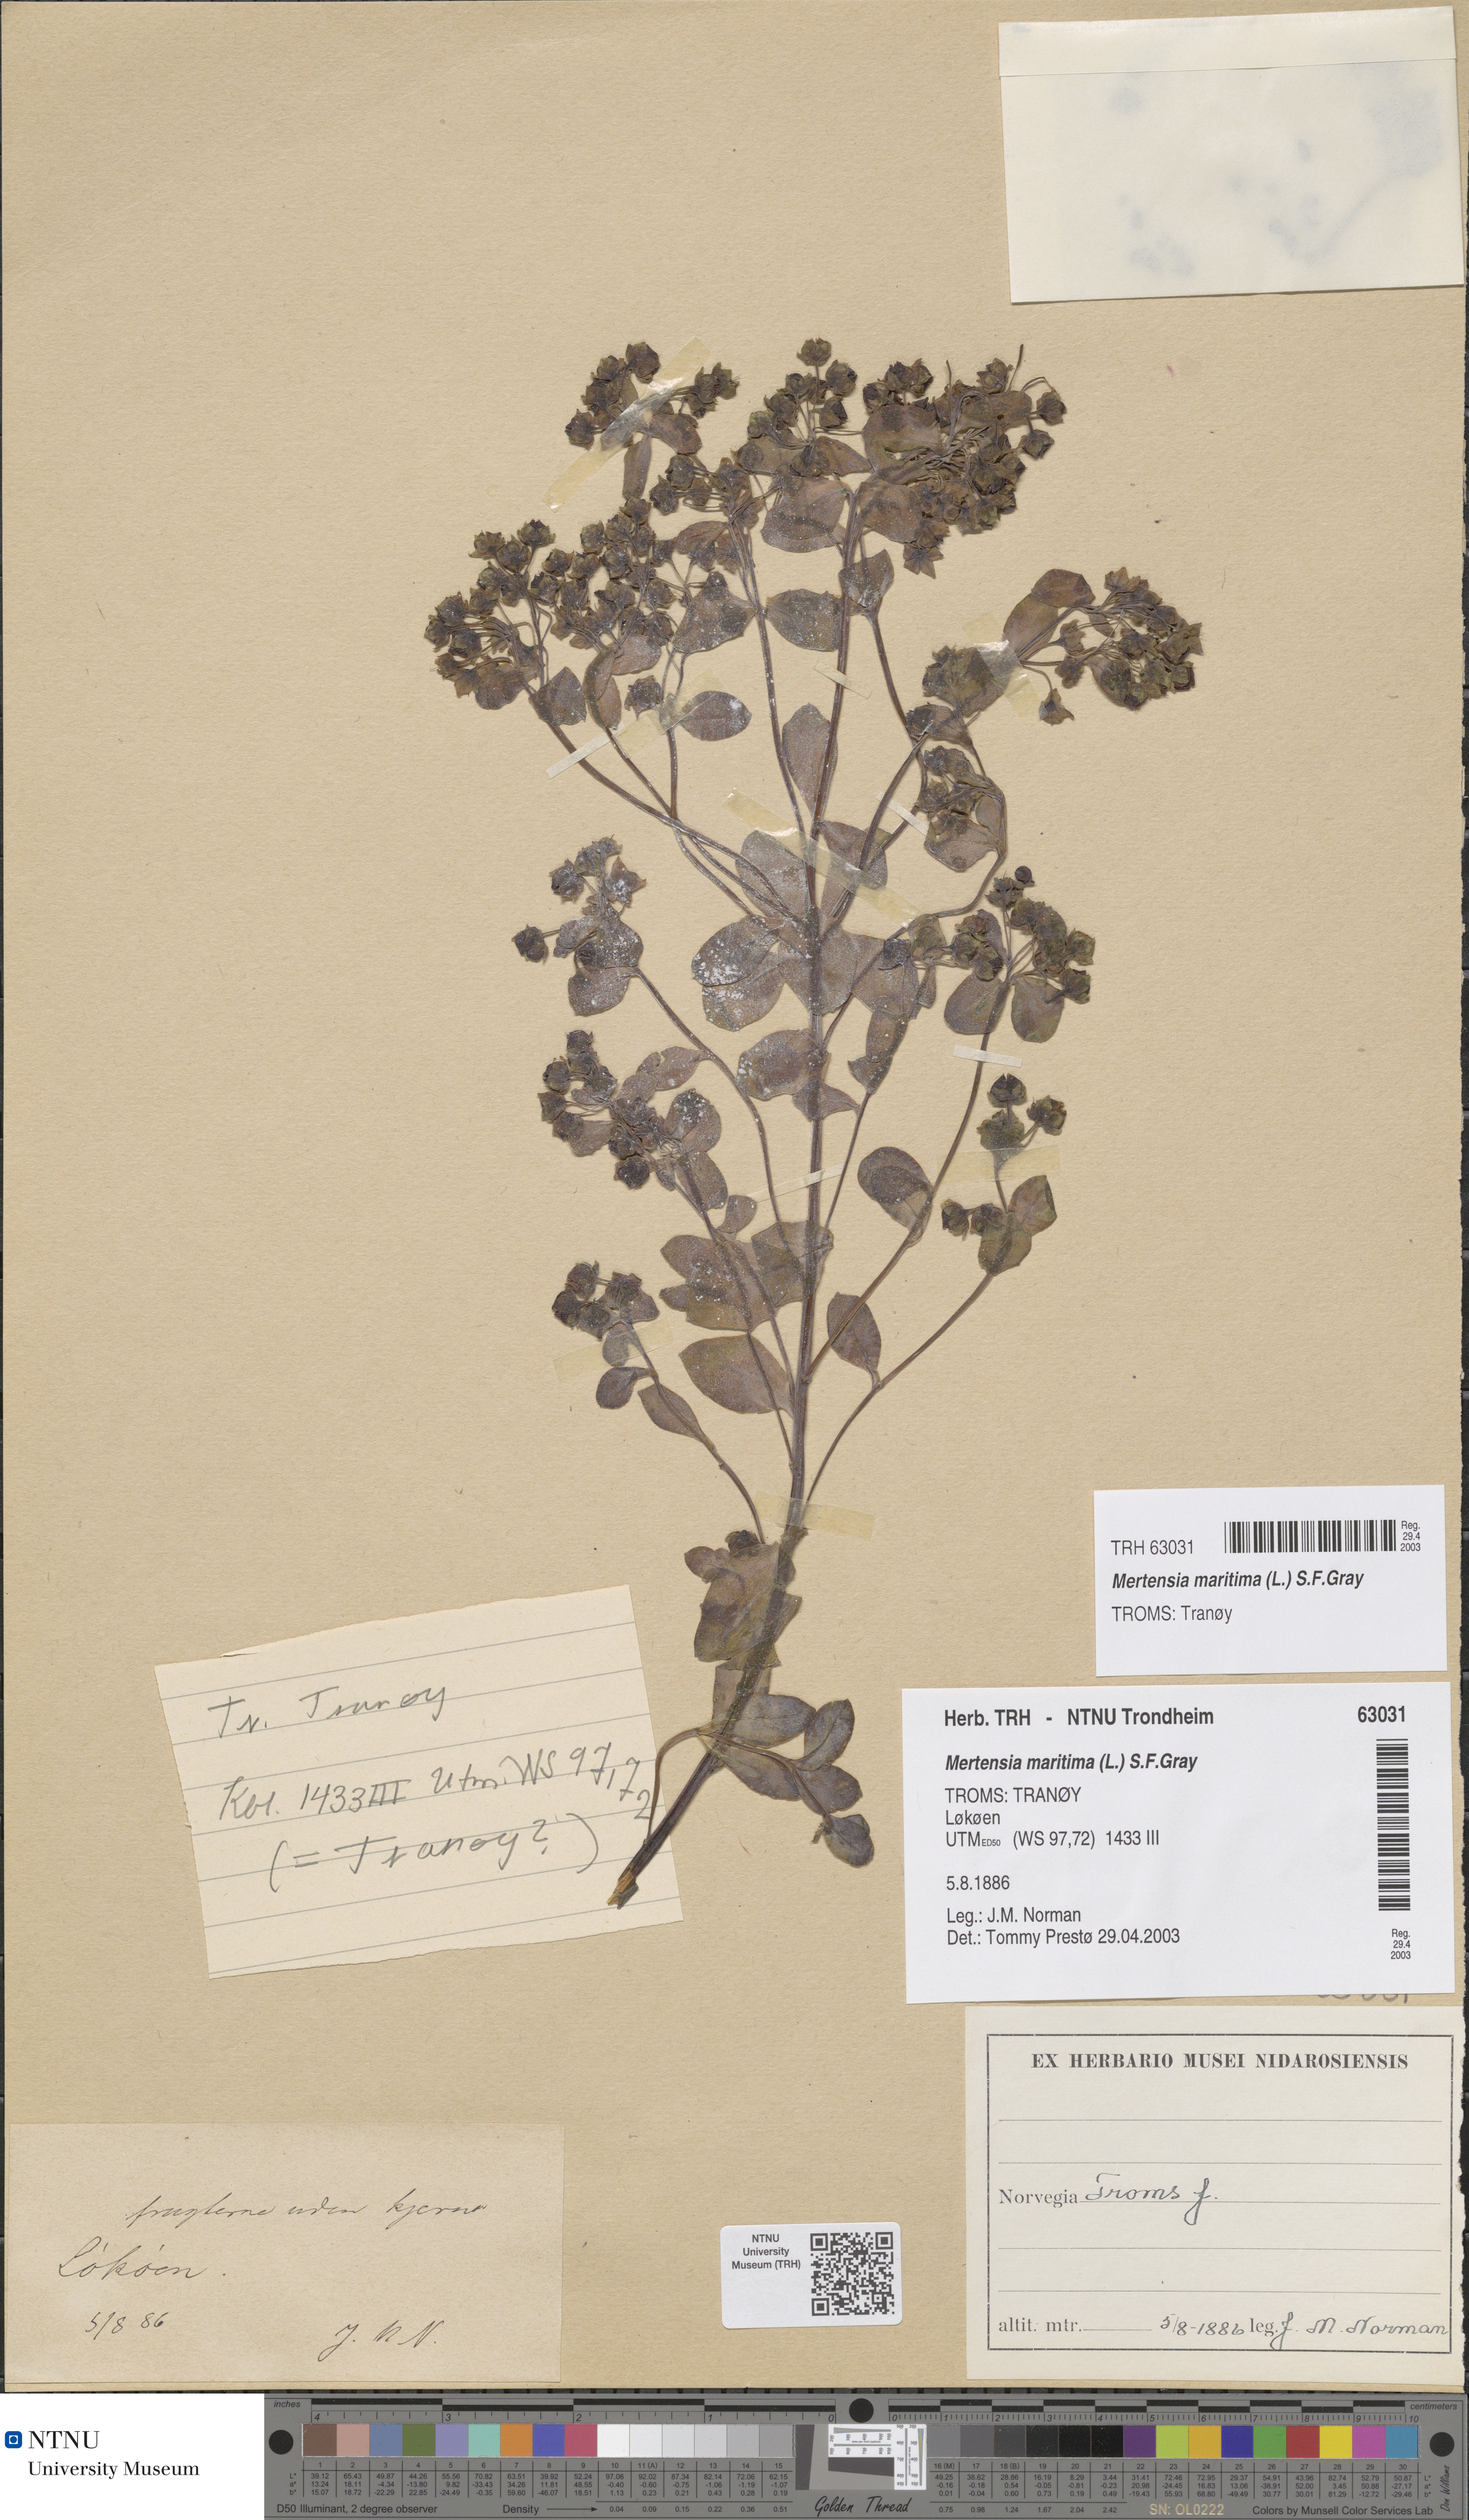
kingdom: Plantae
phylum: Tracheophyta
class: Magnoliopsida
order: Boraginales
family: Boraginaceae
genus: Mertensia
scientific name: Mertensia maritima
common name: Oysterplant
